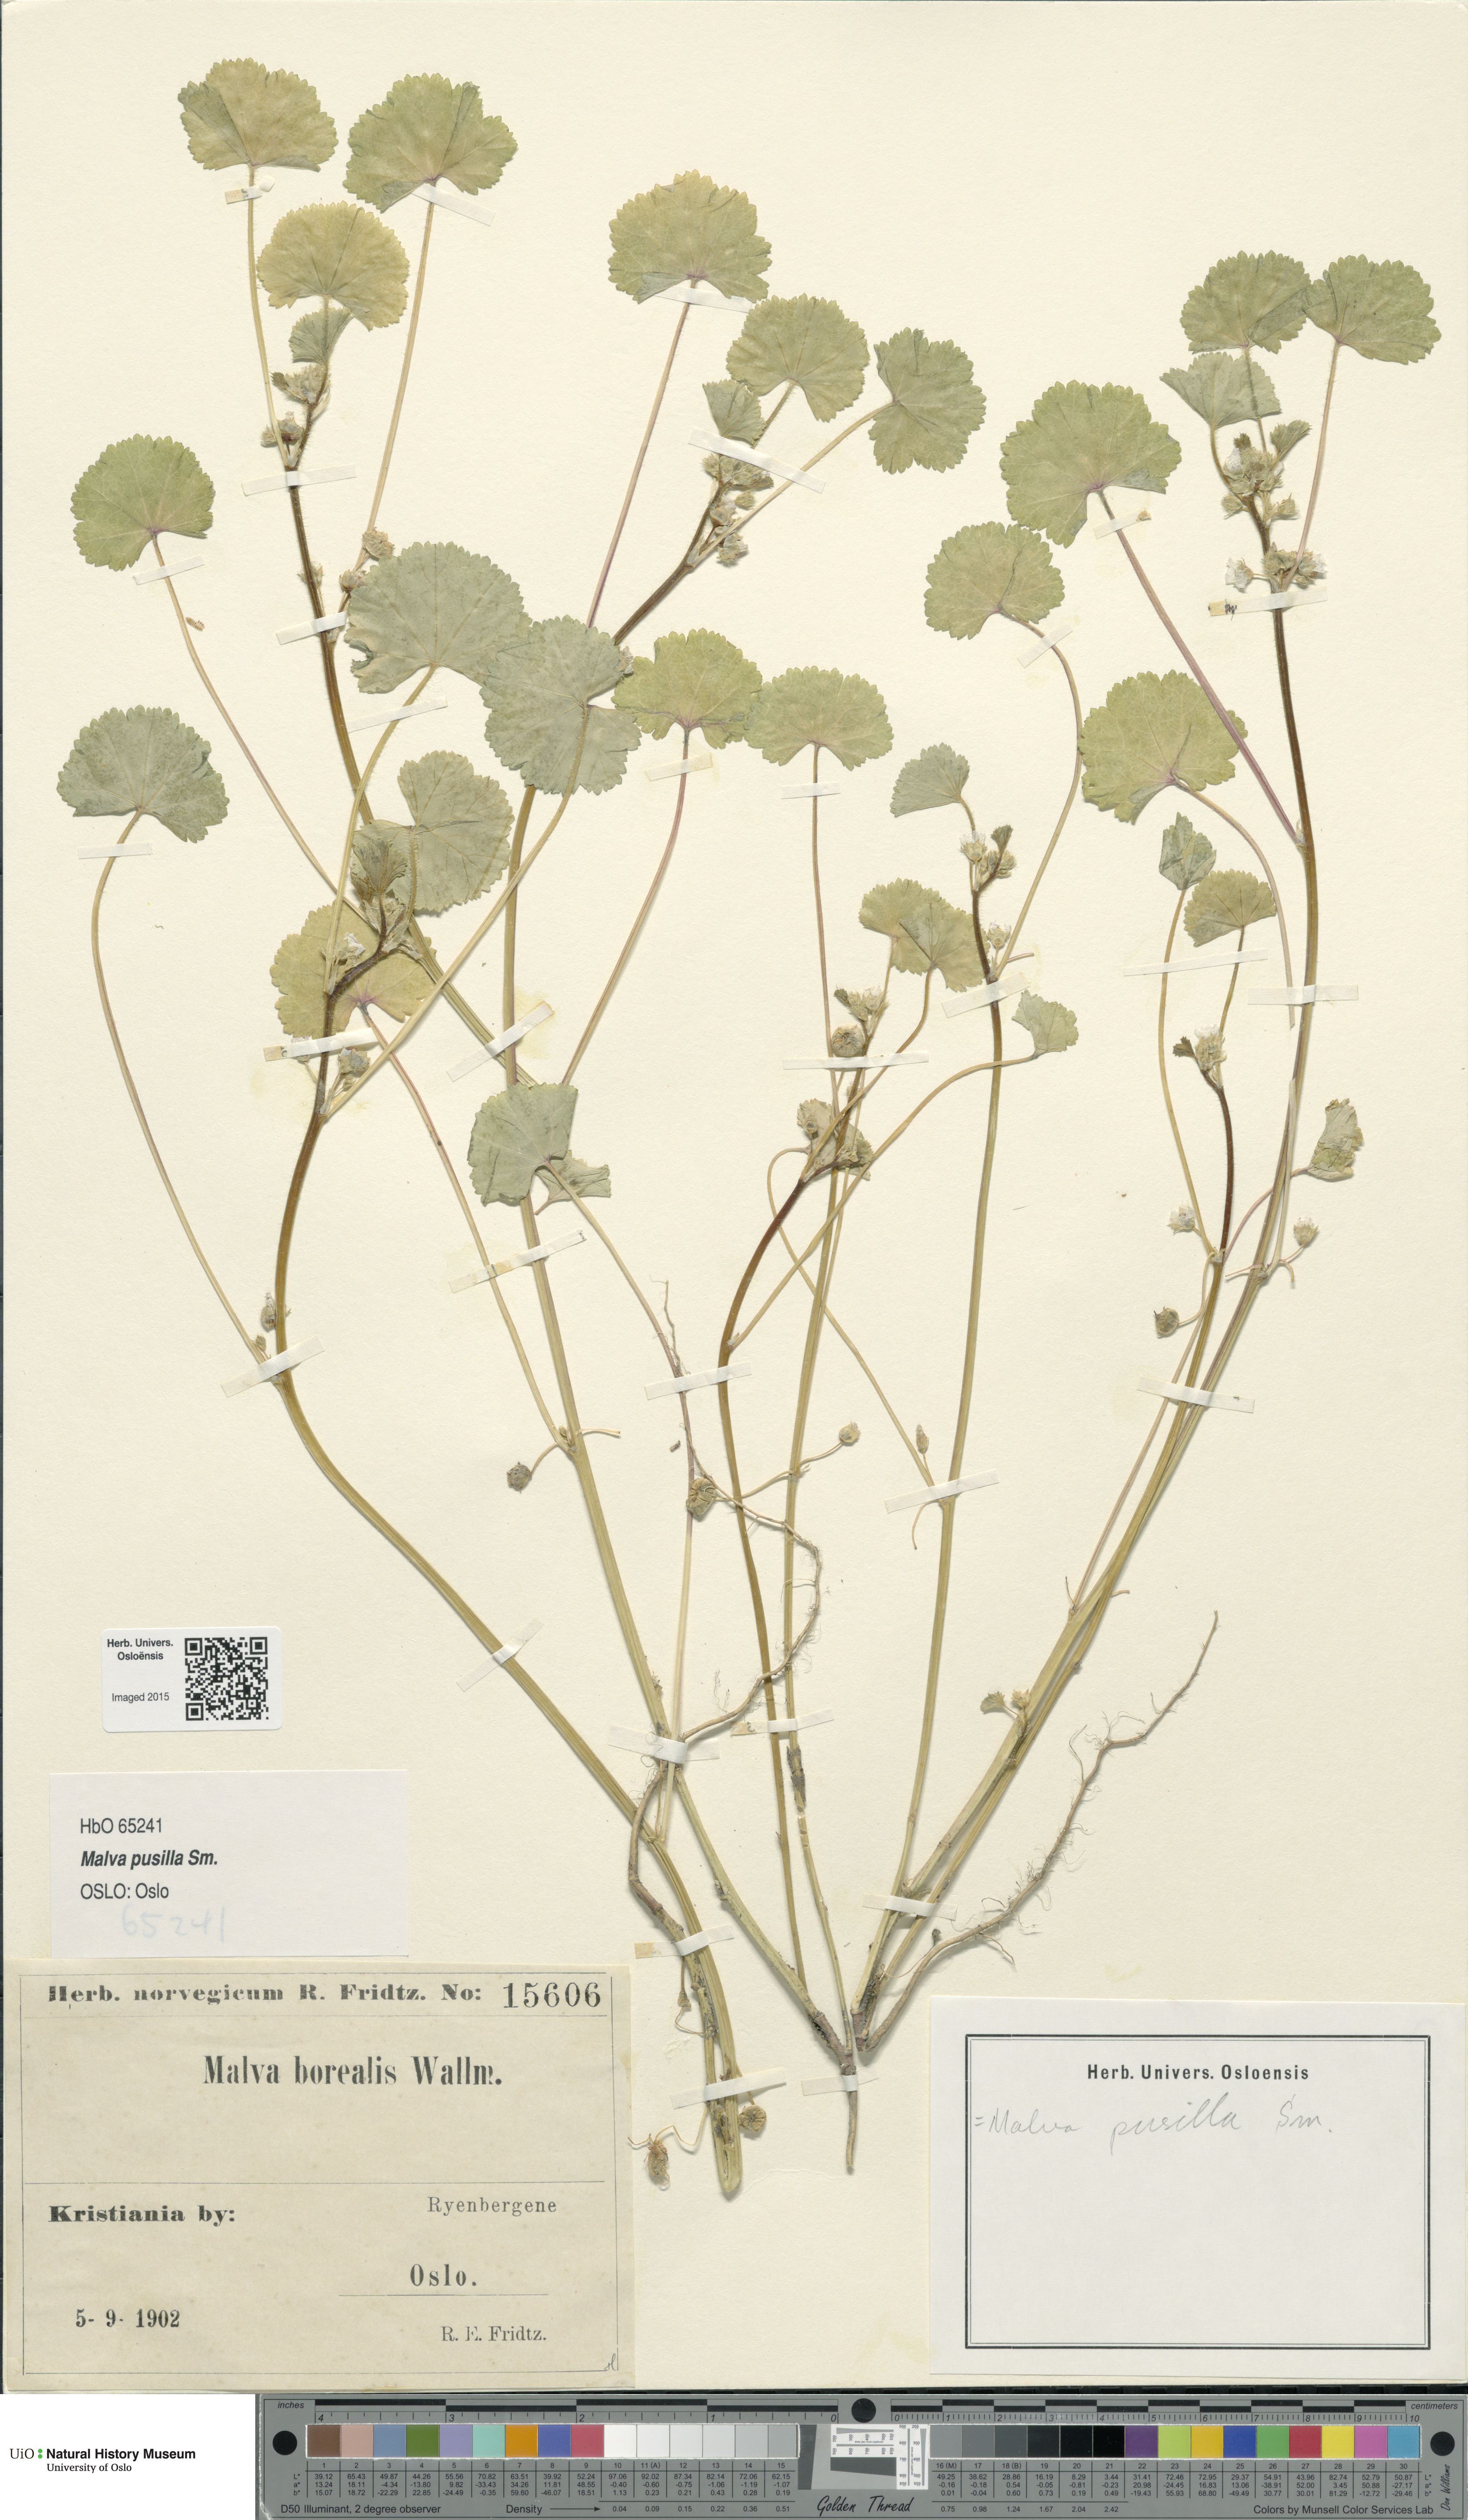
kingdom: Plantae
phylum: Tracheophyta
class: Magnoliopsida
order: Malvales
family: Malvaceae
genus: Malva
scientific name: Malva pusilla
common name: Small mallow
